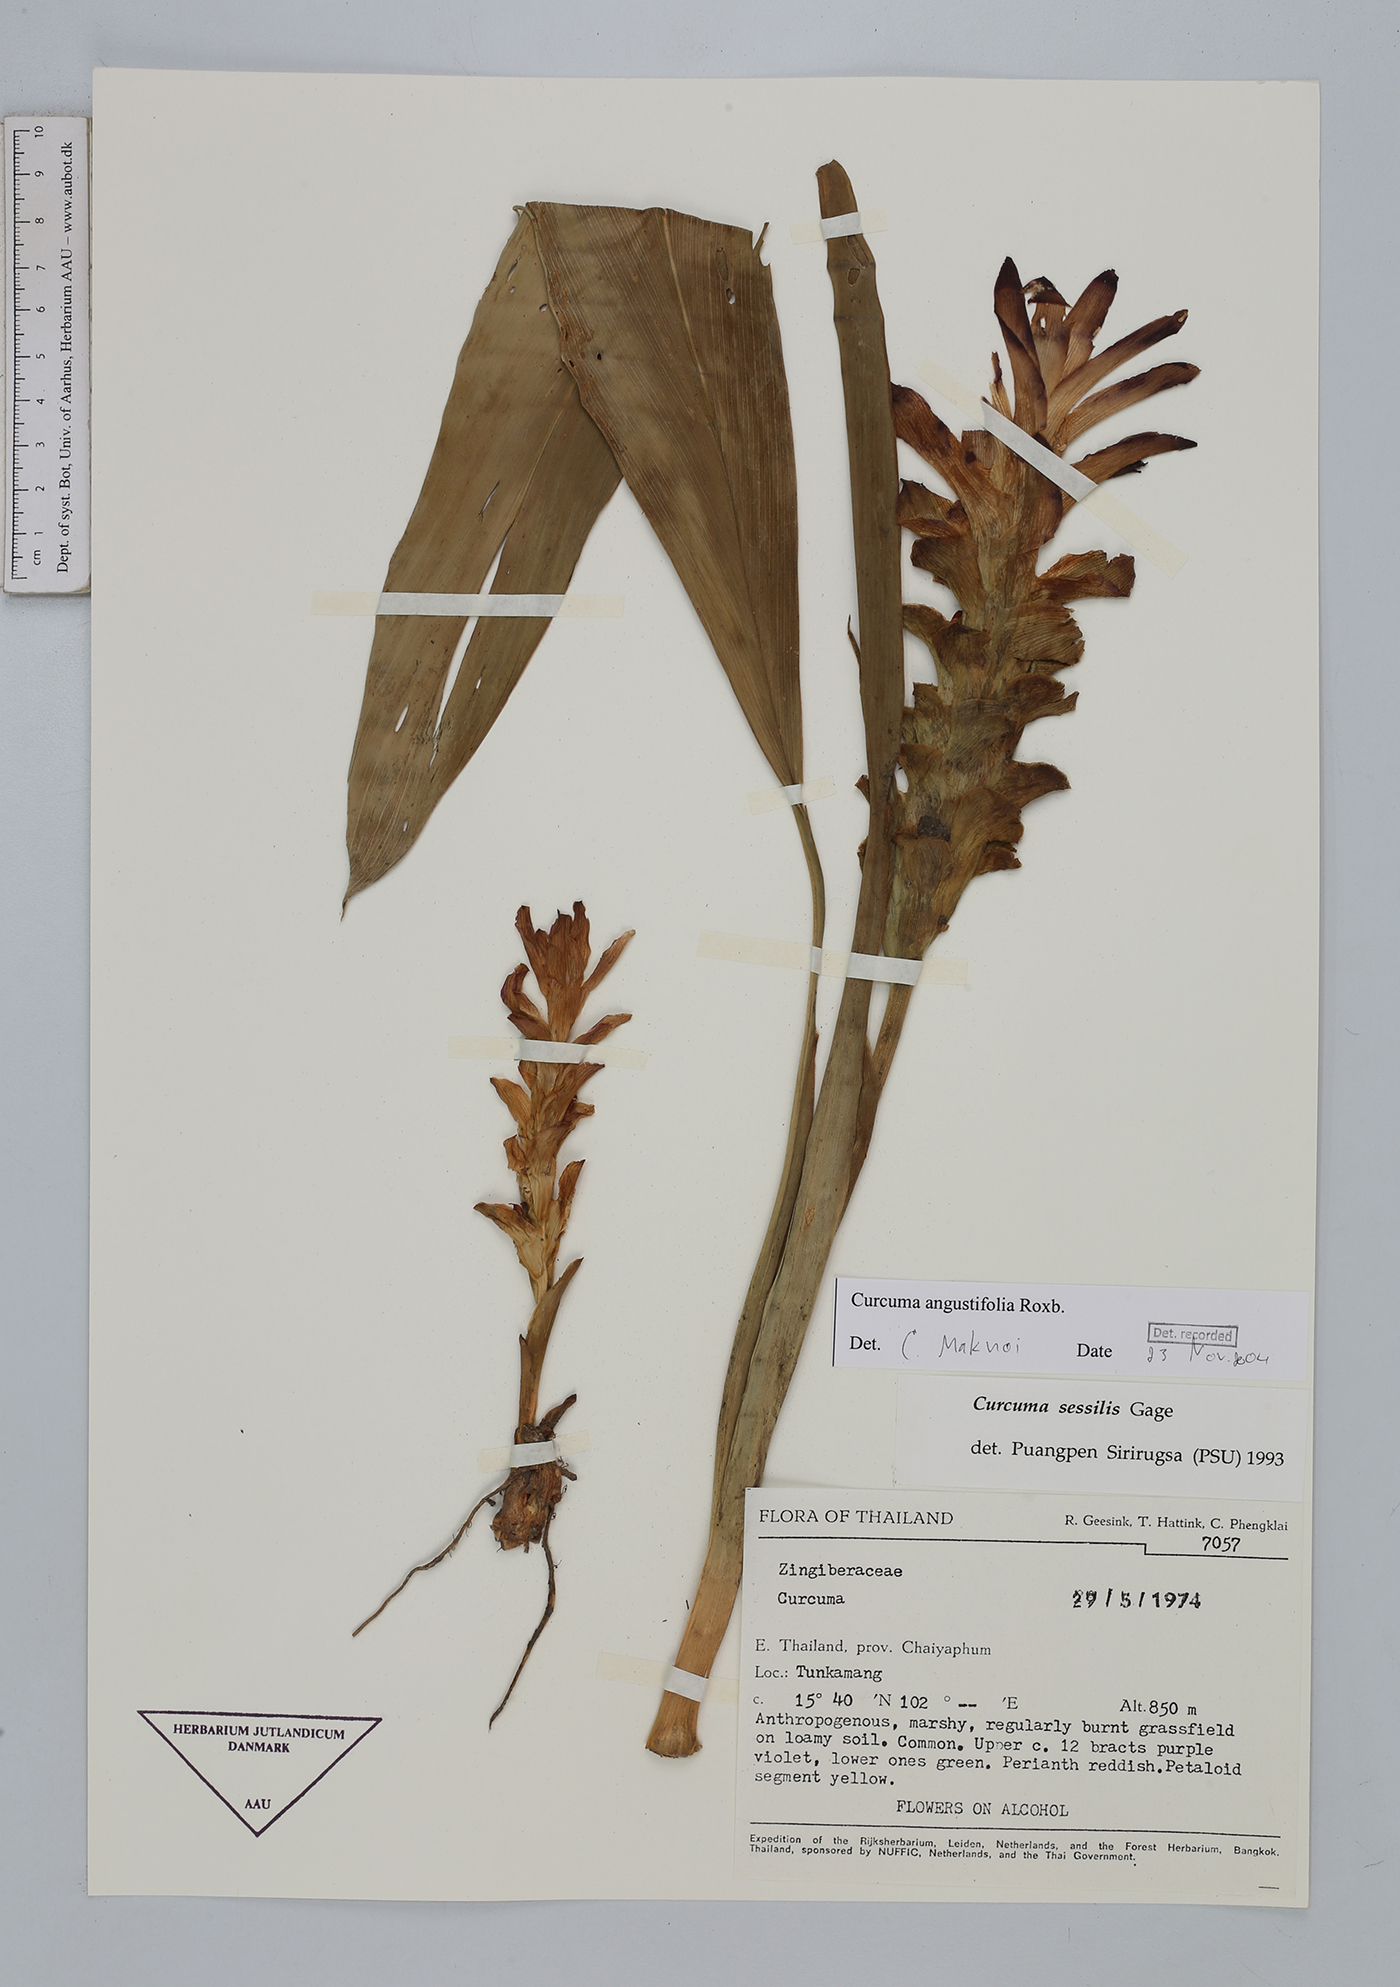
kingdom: Plantae
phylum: Tracheophyta
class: Liliopsida
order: Zingiberales
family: Zingiberaceae
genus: Curcuma
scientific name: Curcuma angustifolia
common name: East indian arrowroot
